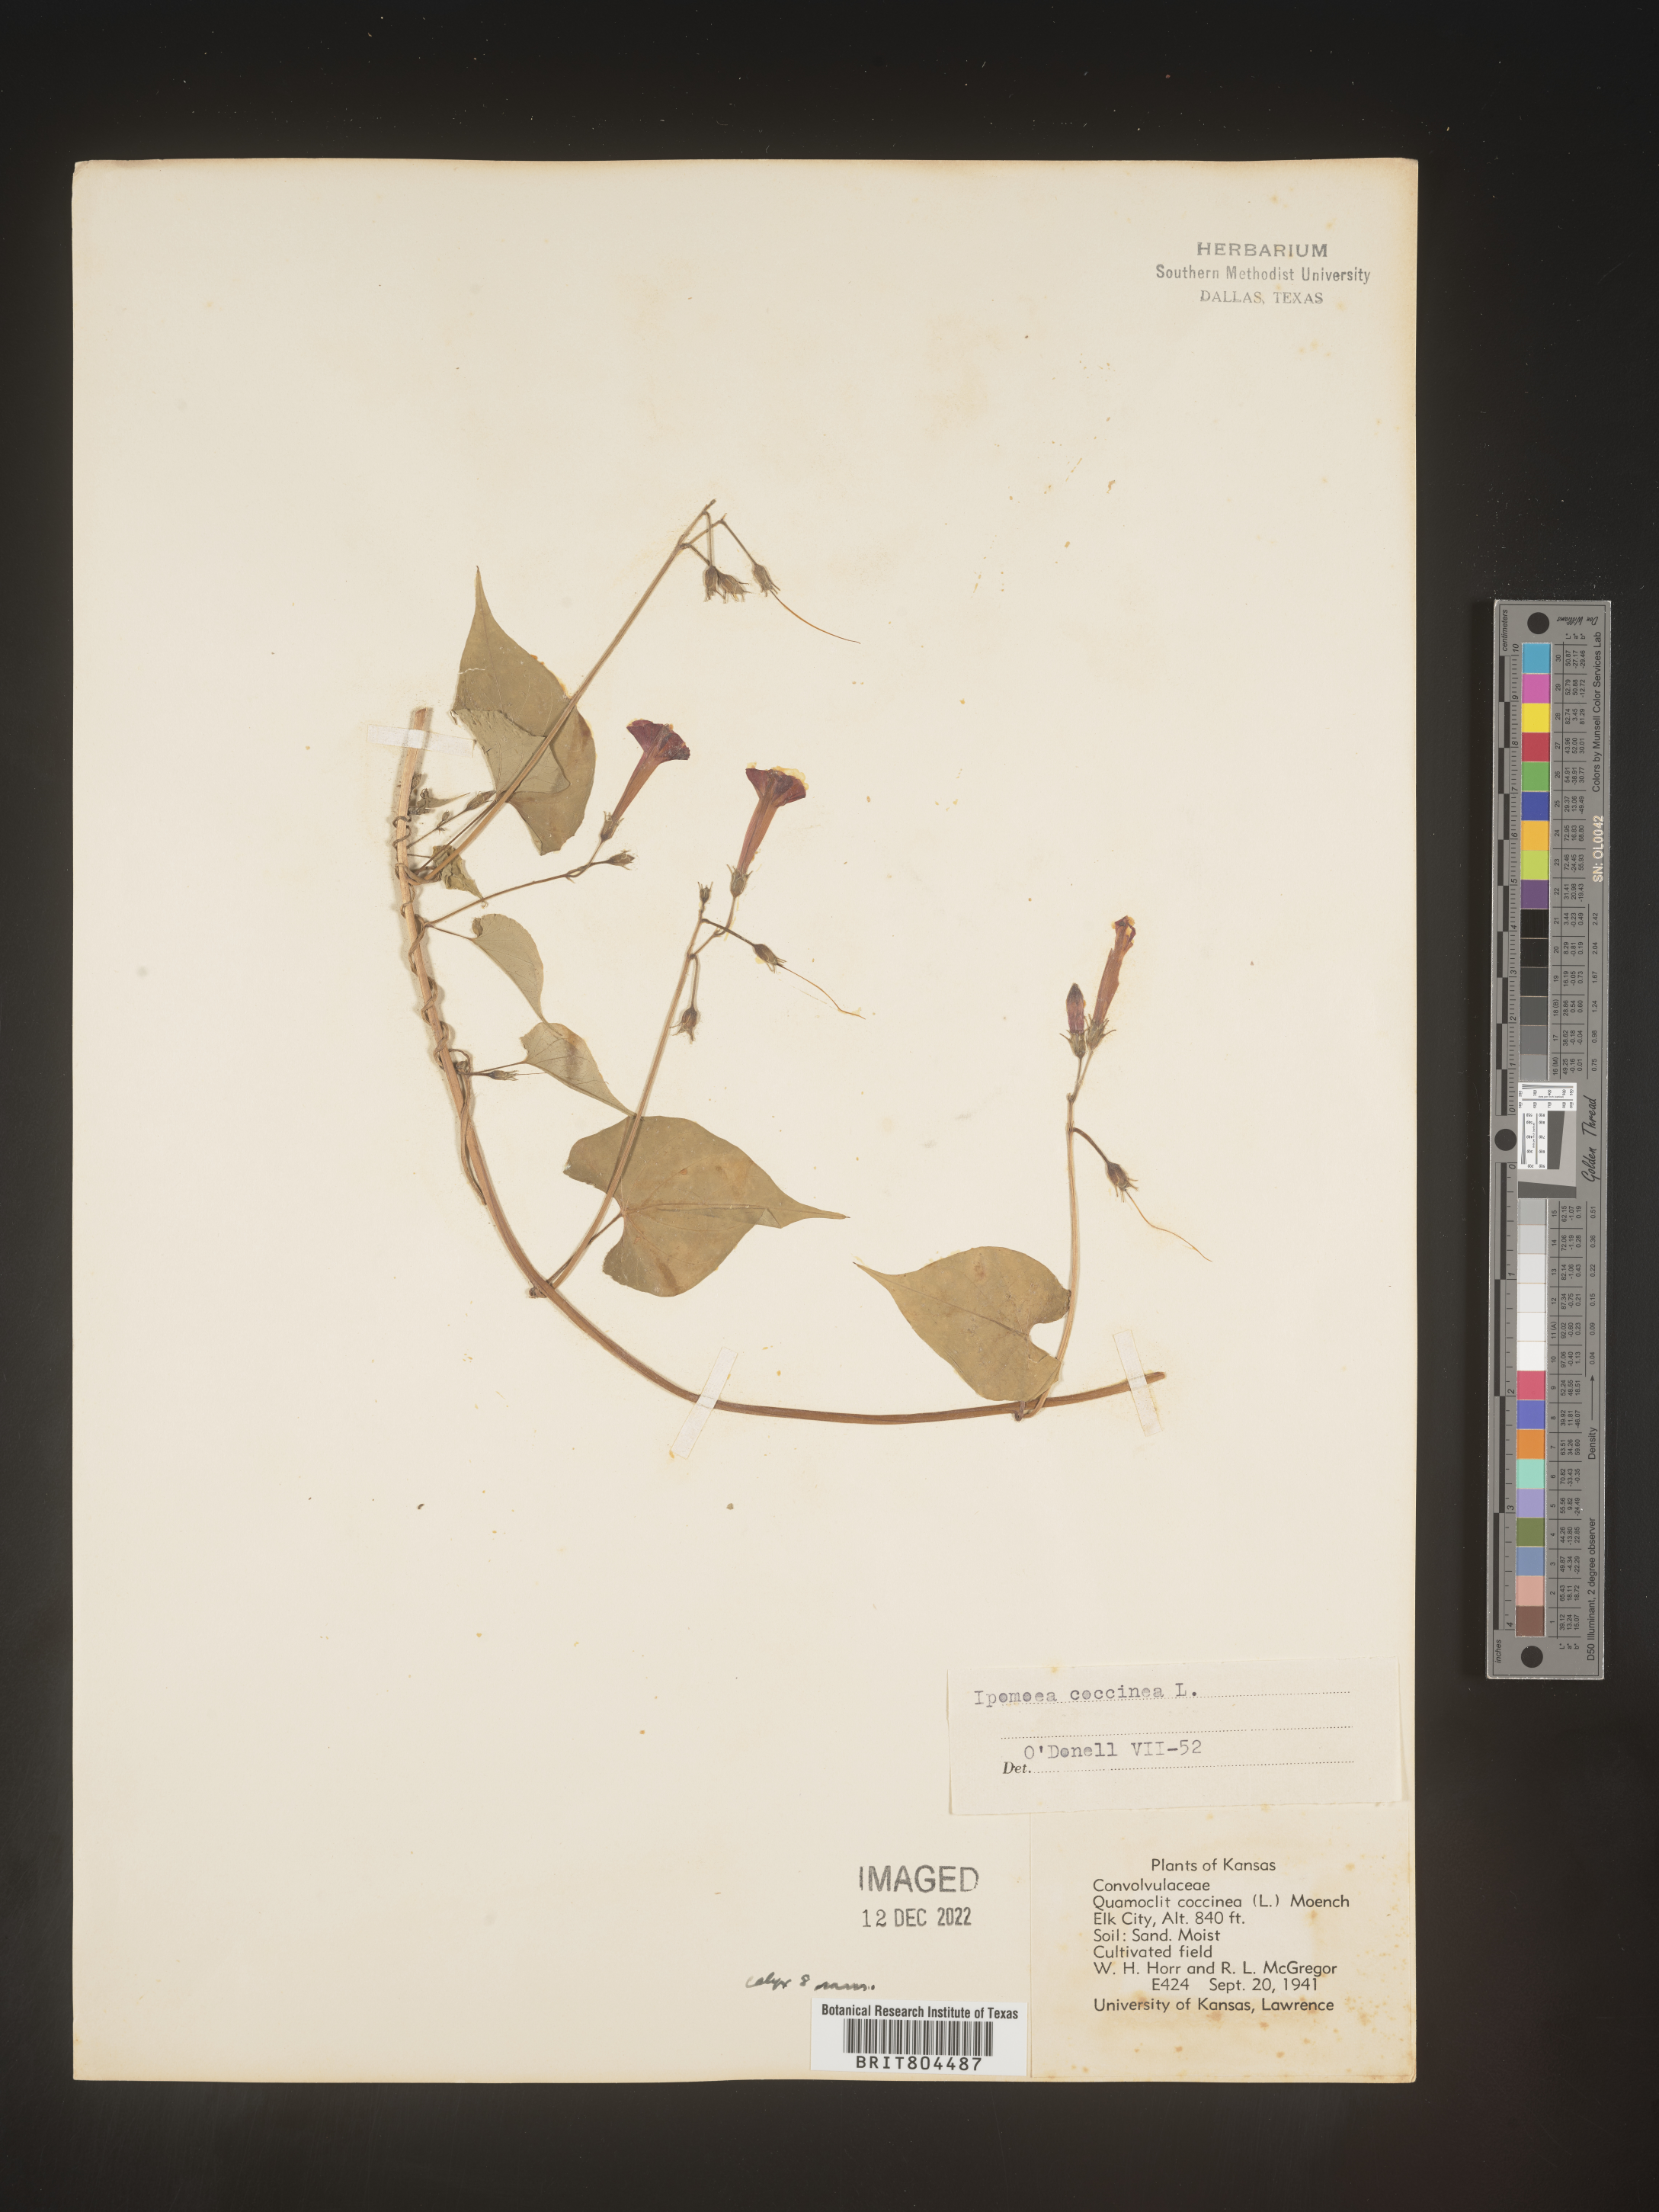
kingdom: Plantae
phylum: Tracheophyta
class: Magnoliopsida
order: Solanales
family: Convolvulaceae
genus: Ipomoea
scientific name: Ipomoea coccinea
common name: Red morning-glory
